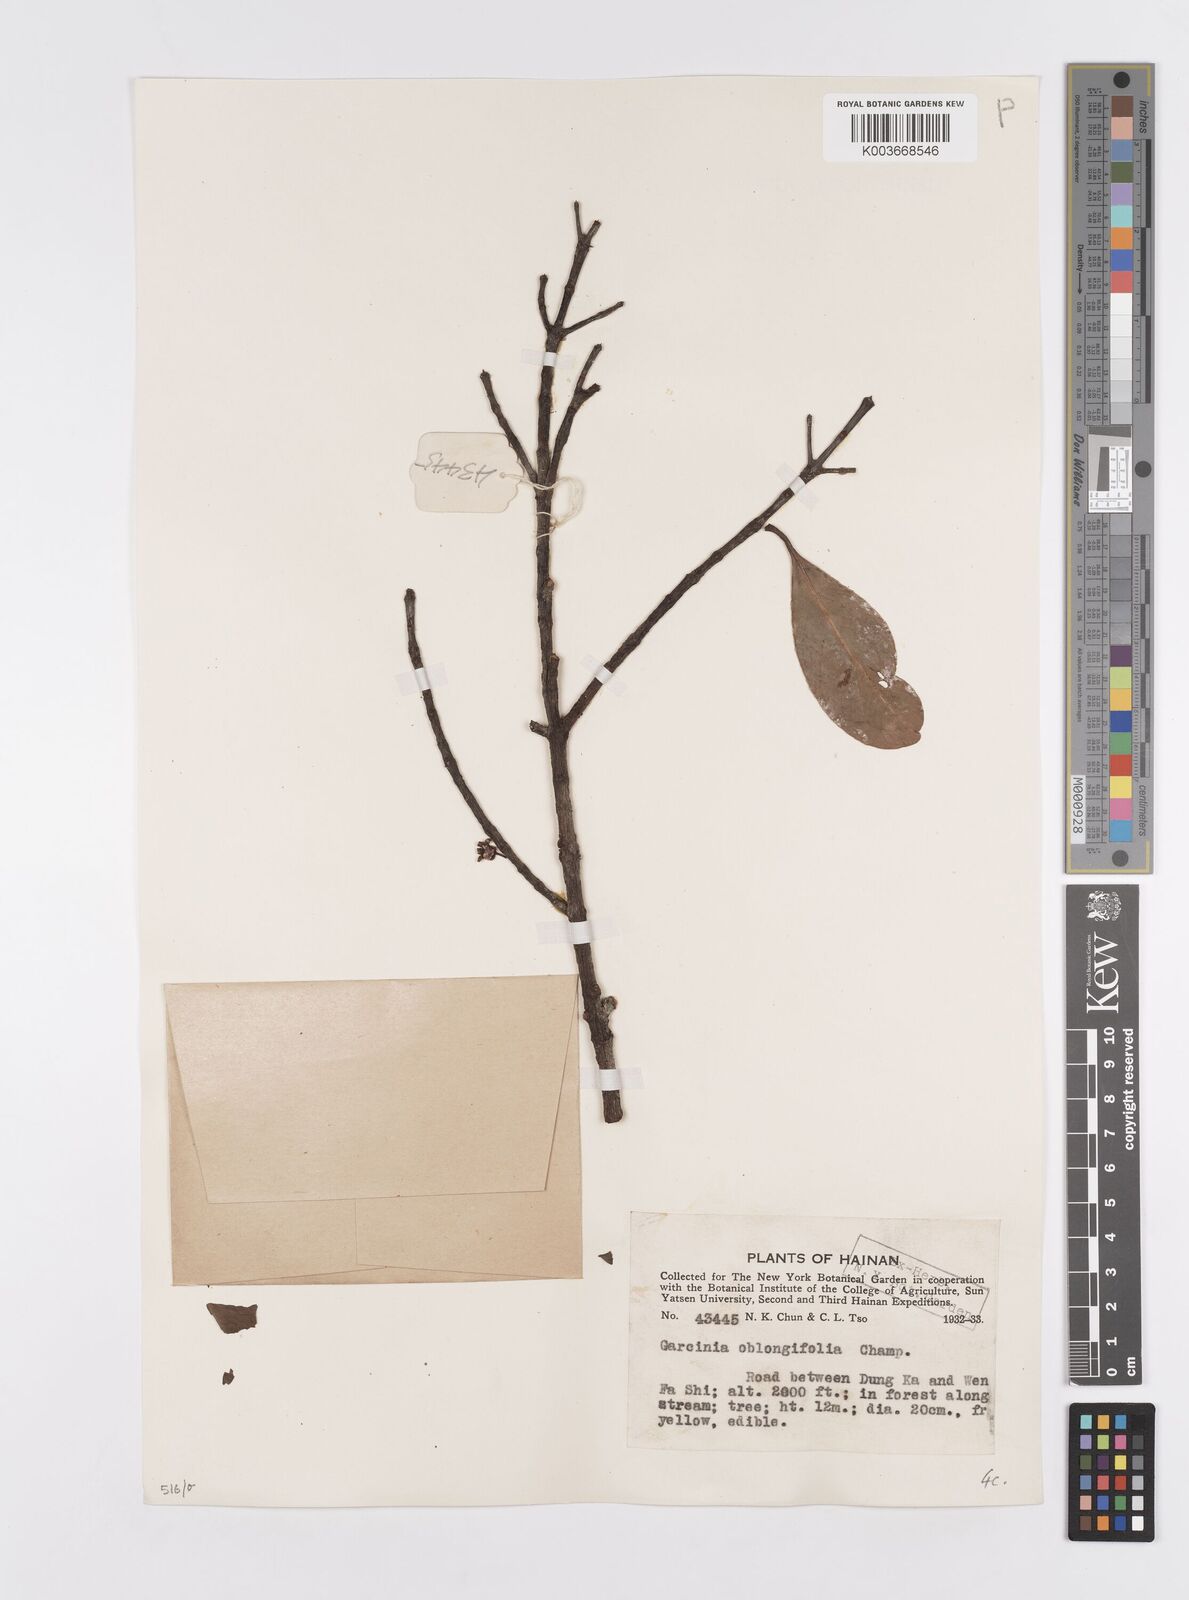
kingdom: Plantae
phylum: Tracheophyta
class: Magnoliopsida
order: Malpighiales
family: Clusiaceae
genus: Garcinia
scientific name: Garcinia oblongifolia
